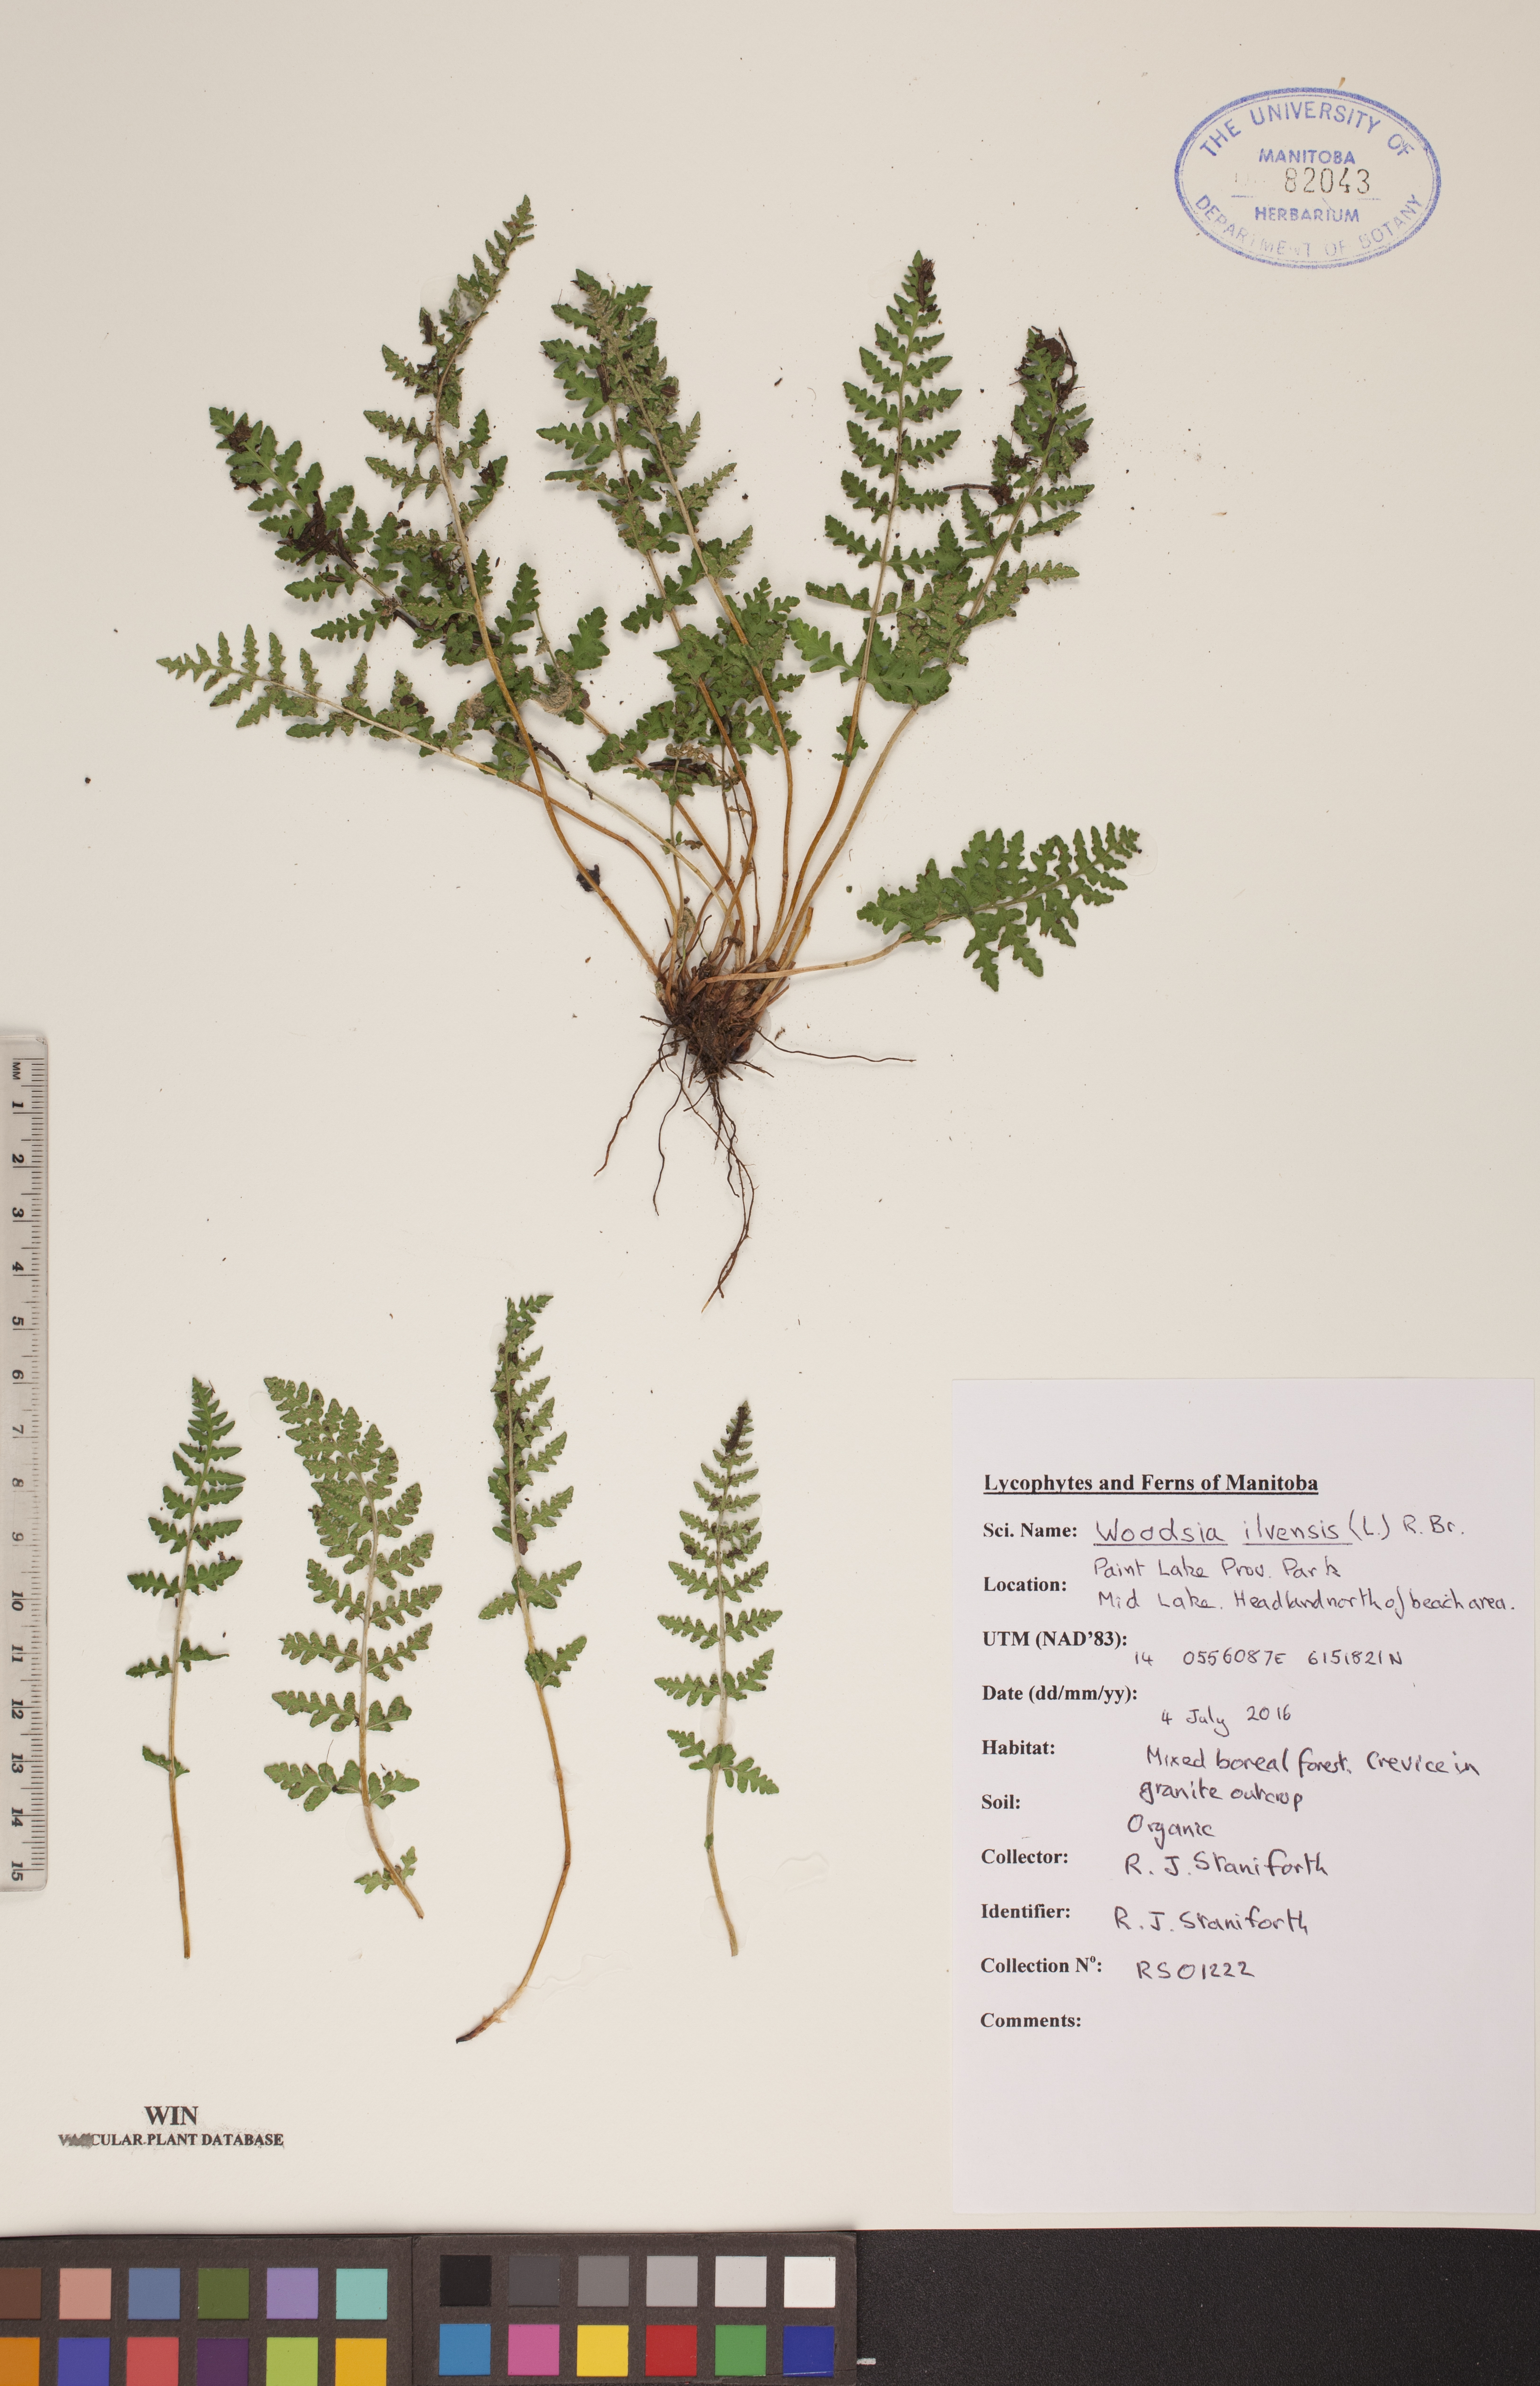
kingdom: Plantae
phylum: Tracheophyta
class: Polypodiopsida
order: Polypodiales
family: Woodsiaceae
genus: Woodsia
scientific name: Woodsia ilvensis
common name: Fragrant woodsia
